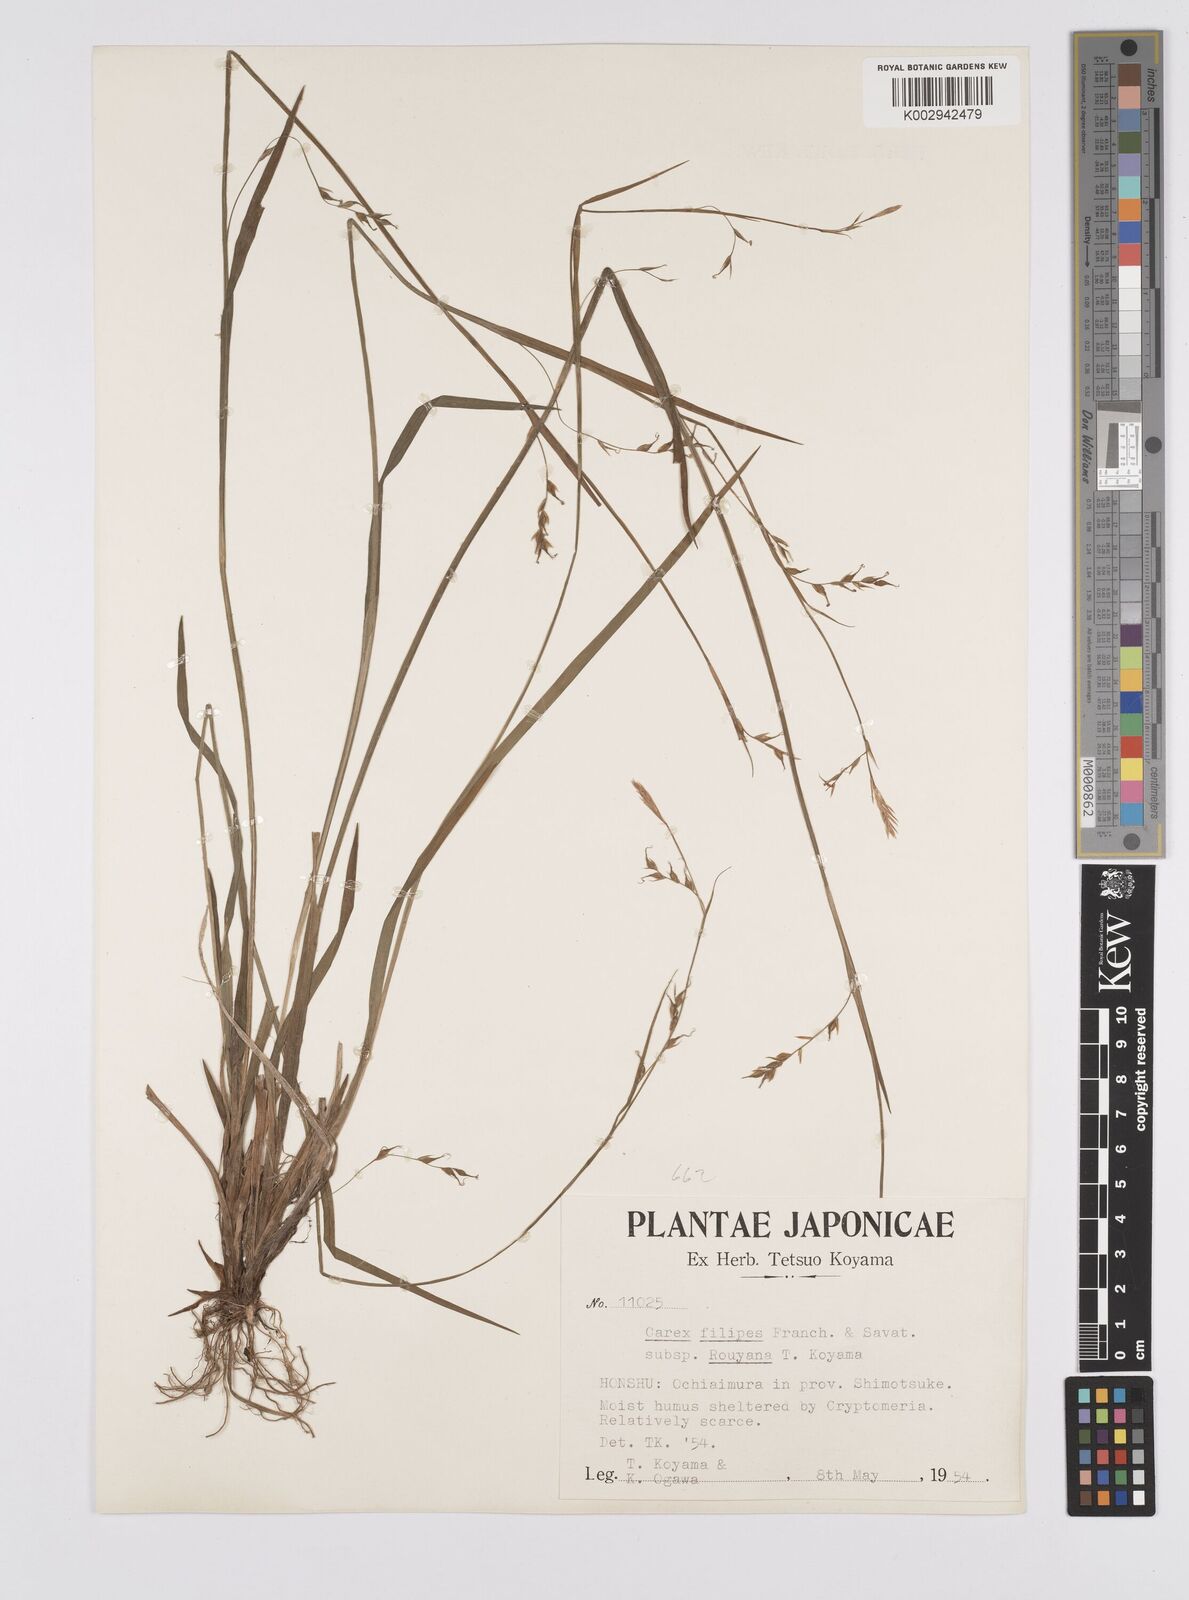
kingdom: Plantae
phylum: Tracheophyta
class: Liliopsida
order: Poales
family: Cyperaceae
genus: Carex
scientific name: Carex filipes
